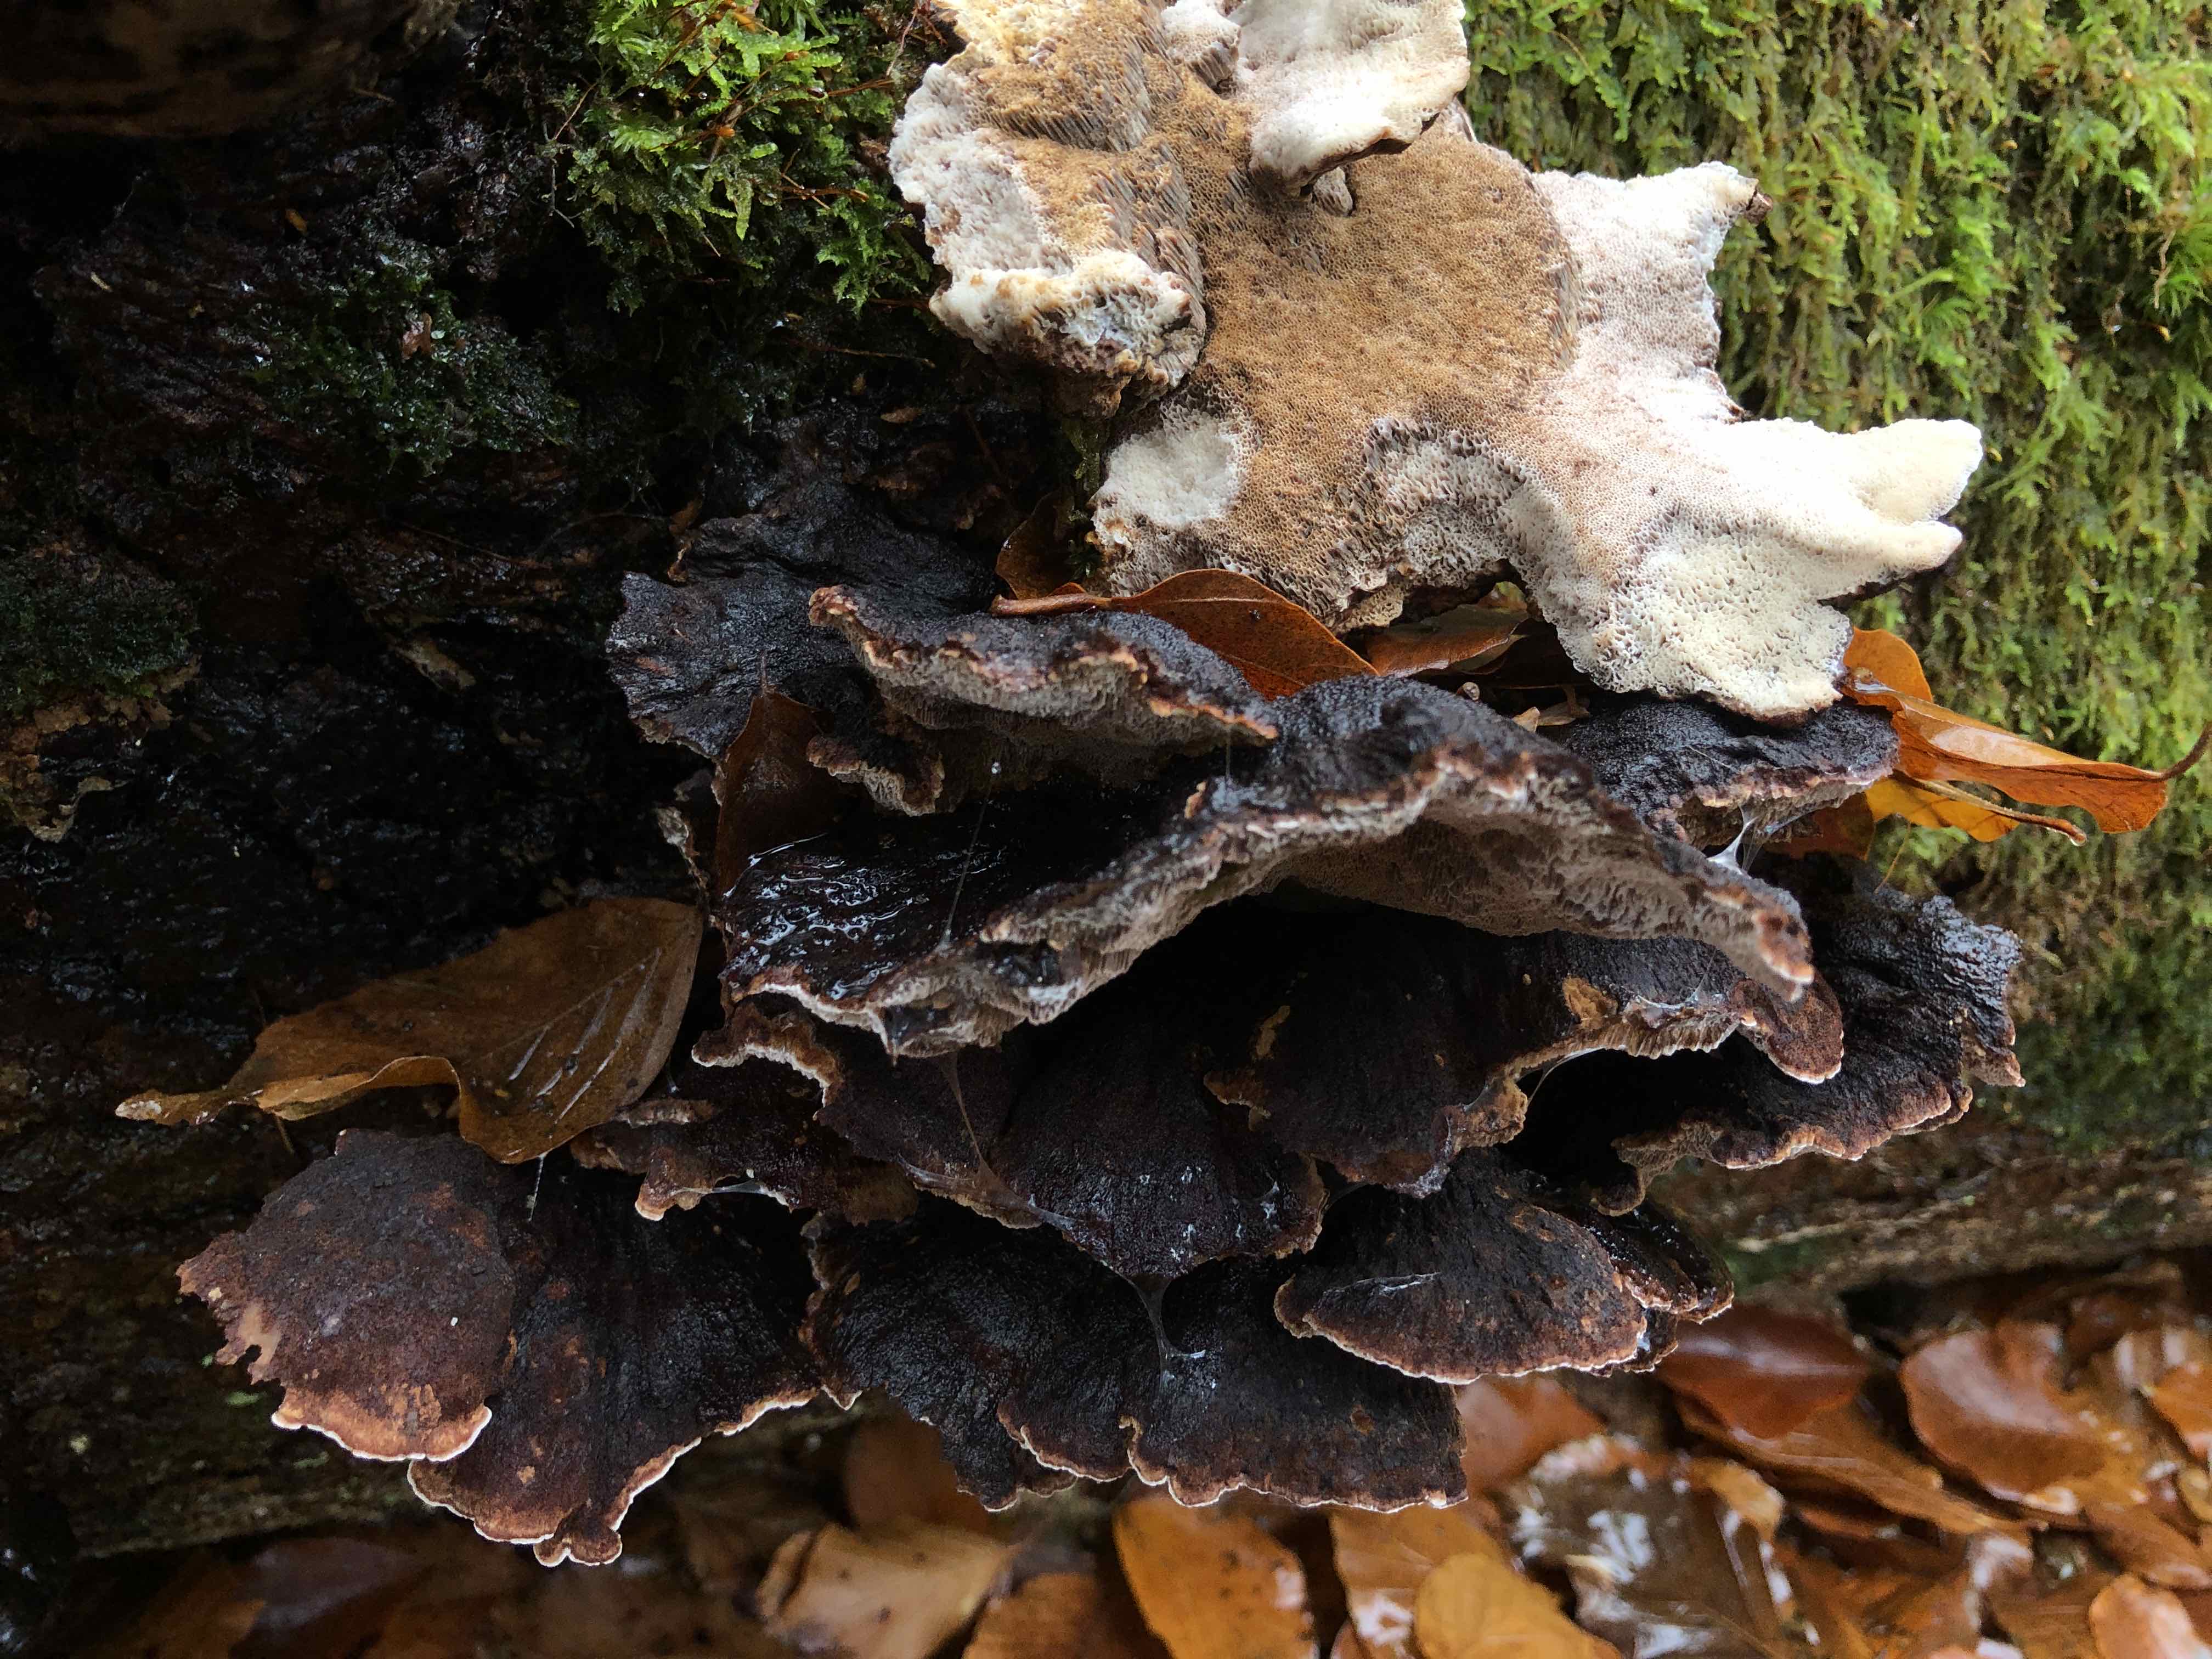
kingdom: Fungi
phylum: Basidiomycota
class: Agaricomycetes
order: Polyporales
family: Ischnodermataceae
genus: Ischnoderma
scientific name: Ischnoderma benzoinum
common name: gran-tjæreporesvamp
